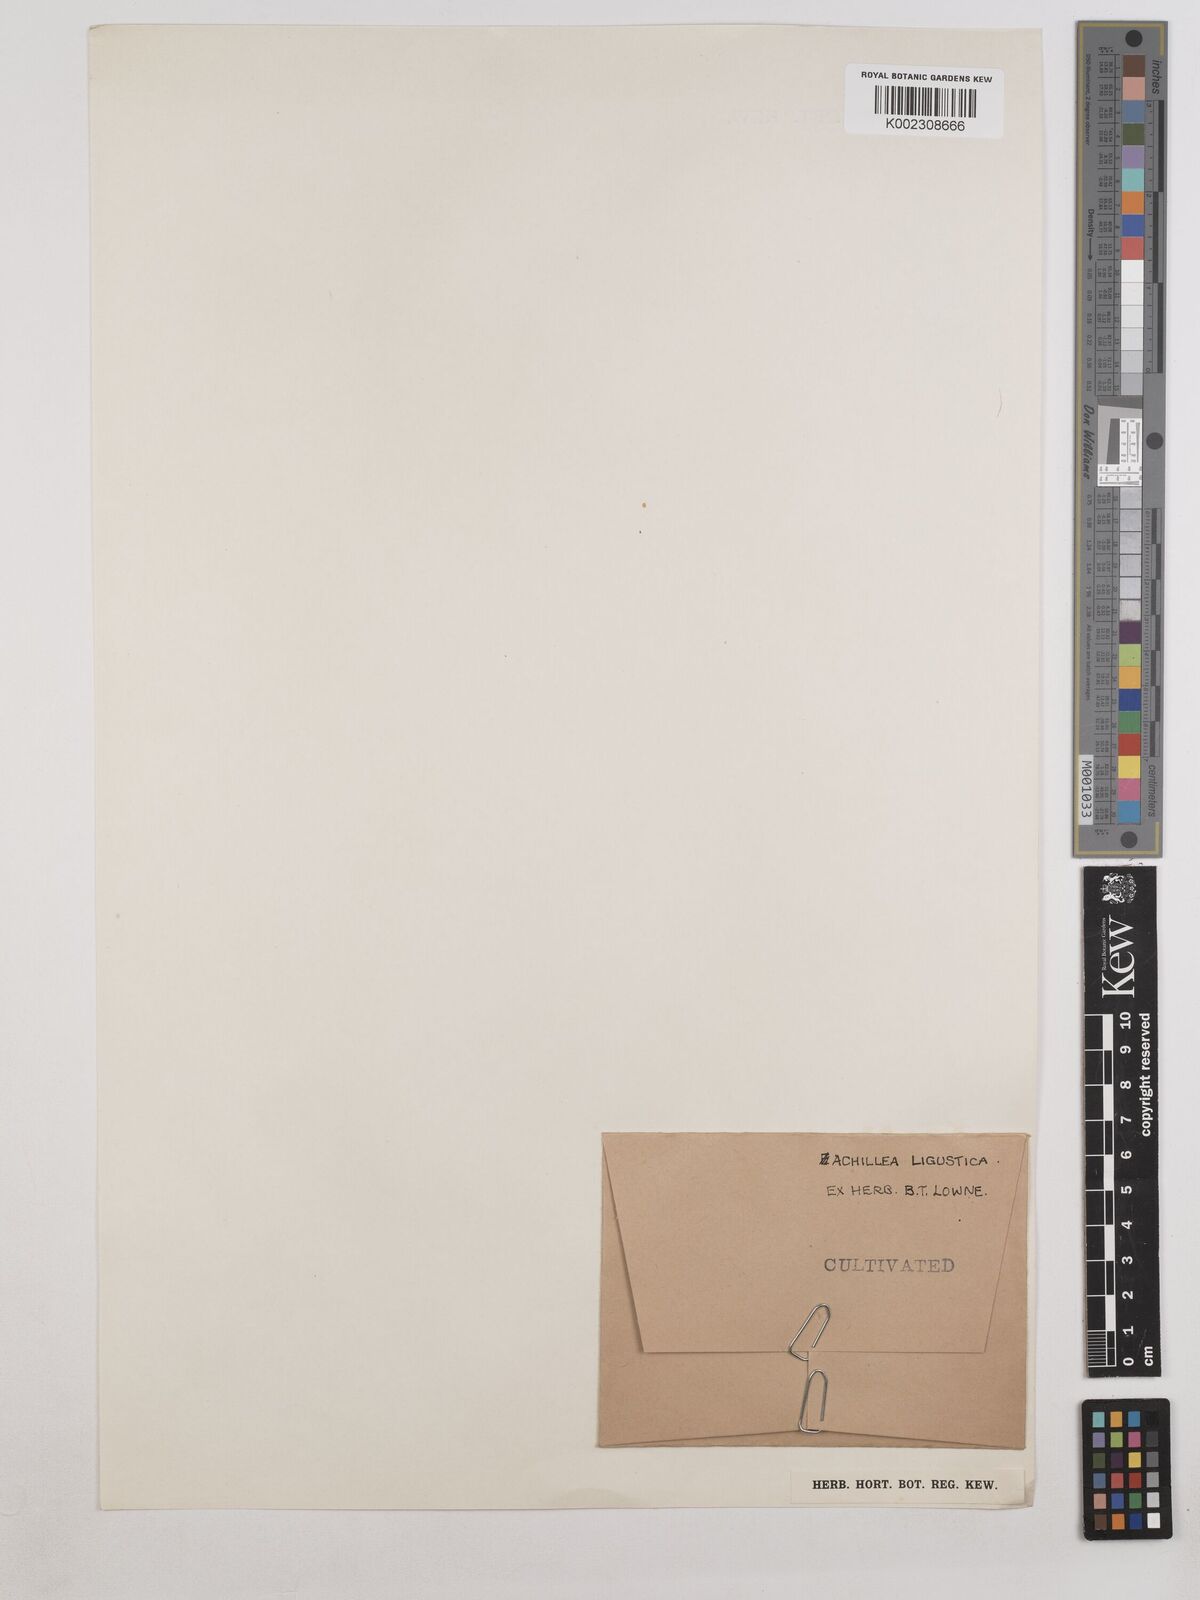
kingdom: Plantae
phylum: Tracheophyta
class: Magnoliopsida
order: Asterales
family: Asteraceae
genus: Achillea
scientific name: Achillea ligustica
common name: Southern yarrow
